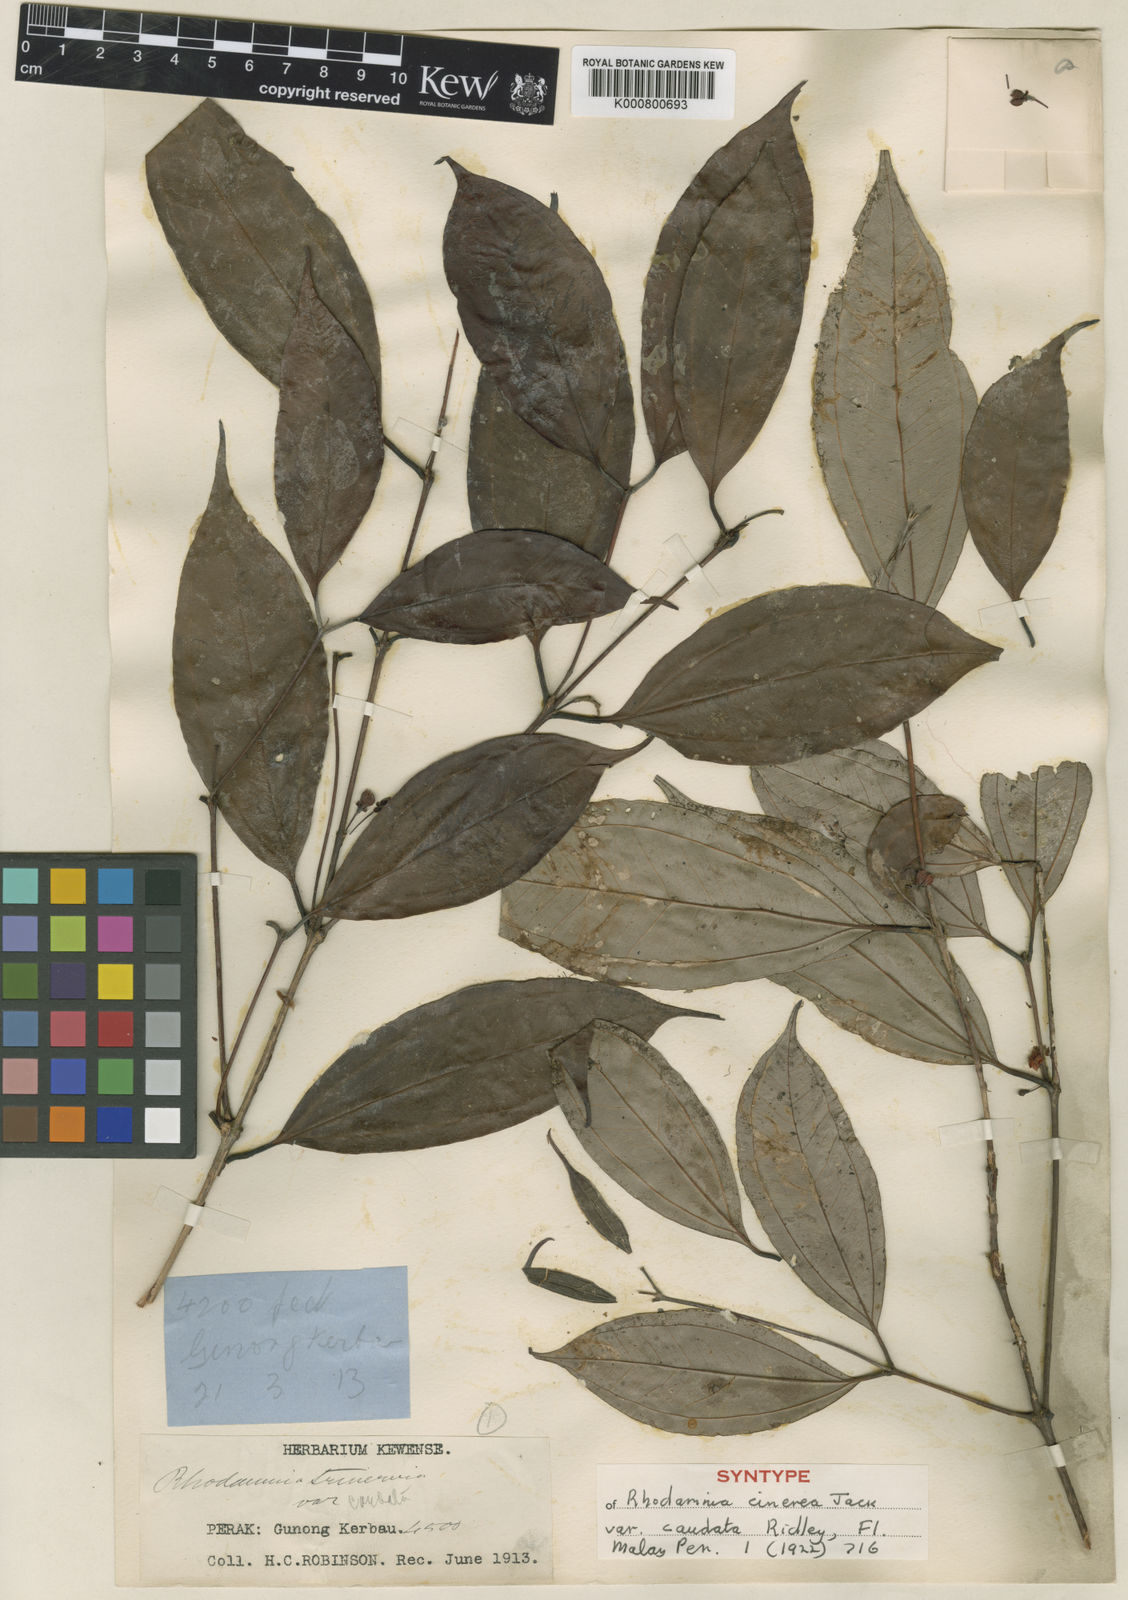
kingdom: Plantae
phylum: Tracheophyta
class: Magnoliopsida
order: Myrtales
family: Myrtaceae
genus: Rhodamnia
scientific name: Rhodamnia cinerea
